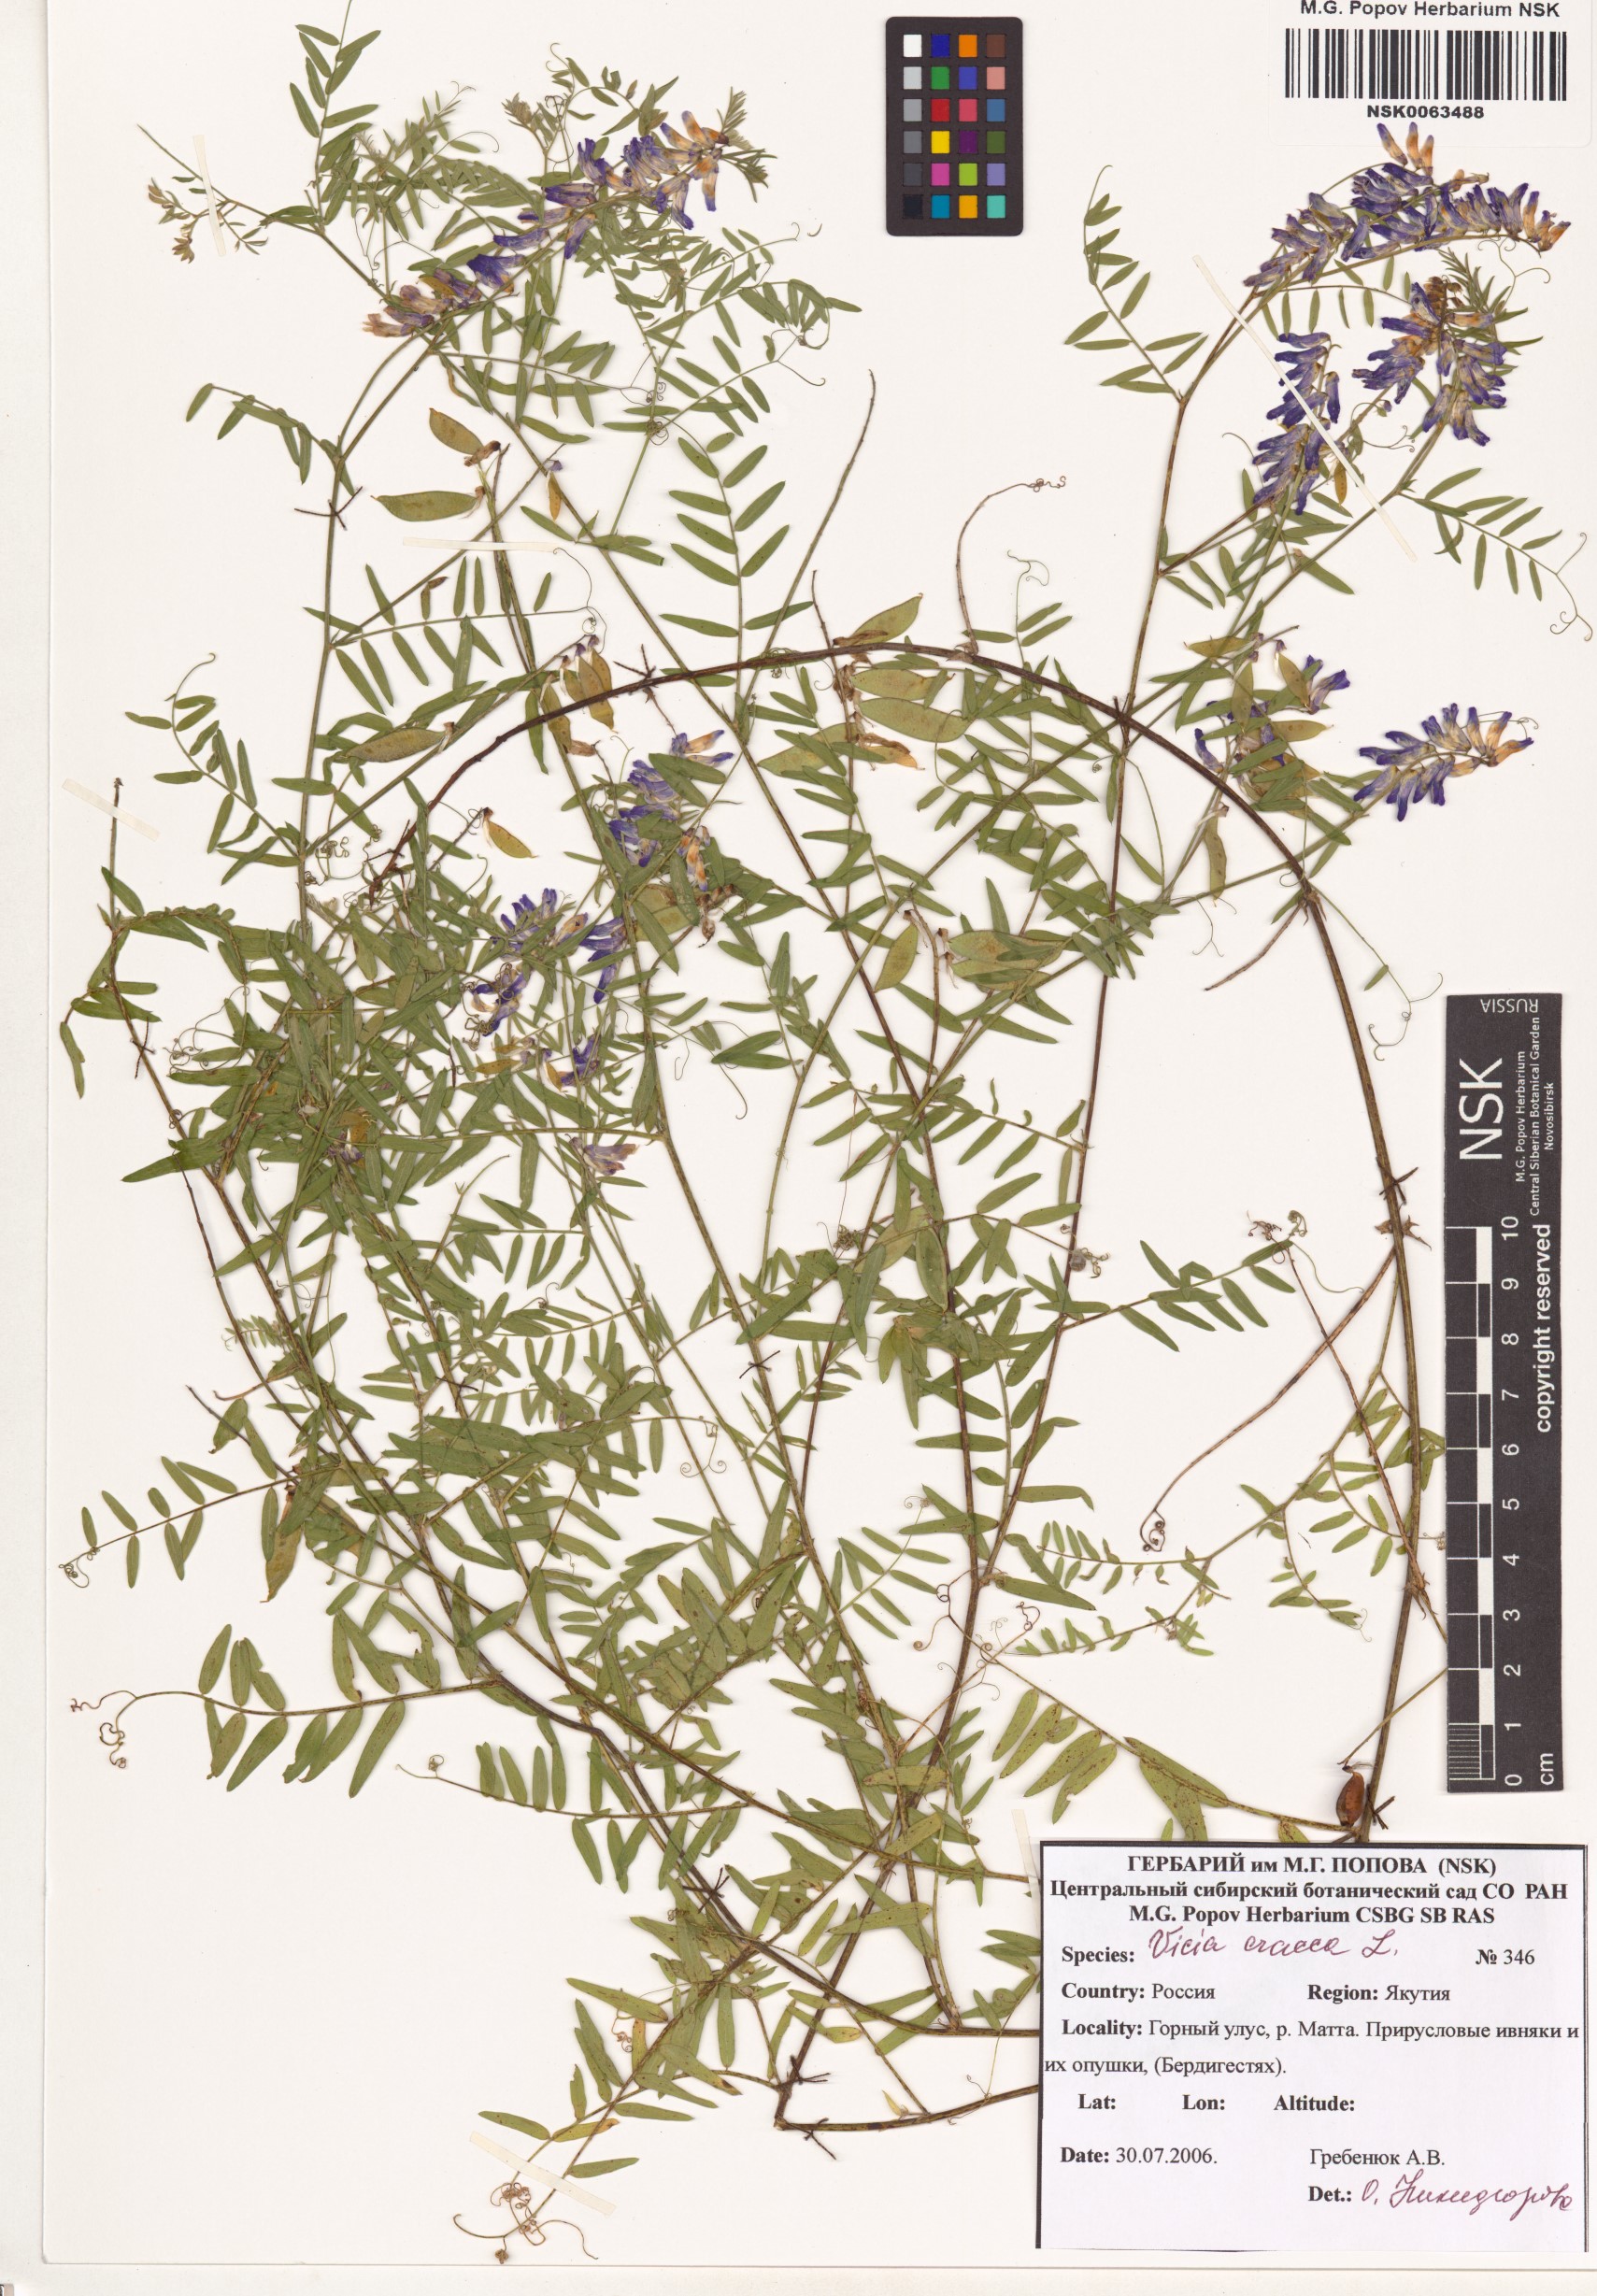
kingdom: Plantae
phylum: Tracheophyta
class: Magnoliopsida
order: Fabales
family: Fabaceae
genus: Vicia
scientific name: Vicia cracca
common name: Bird vetch
